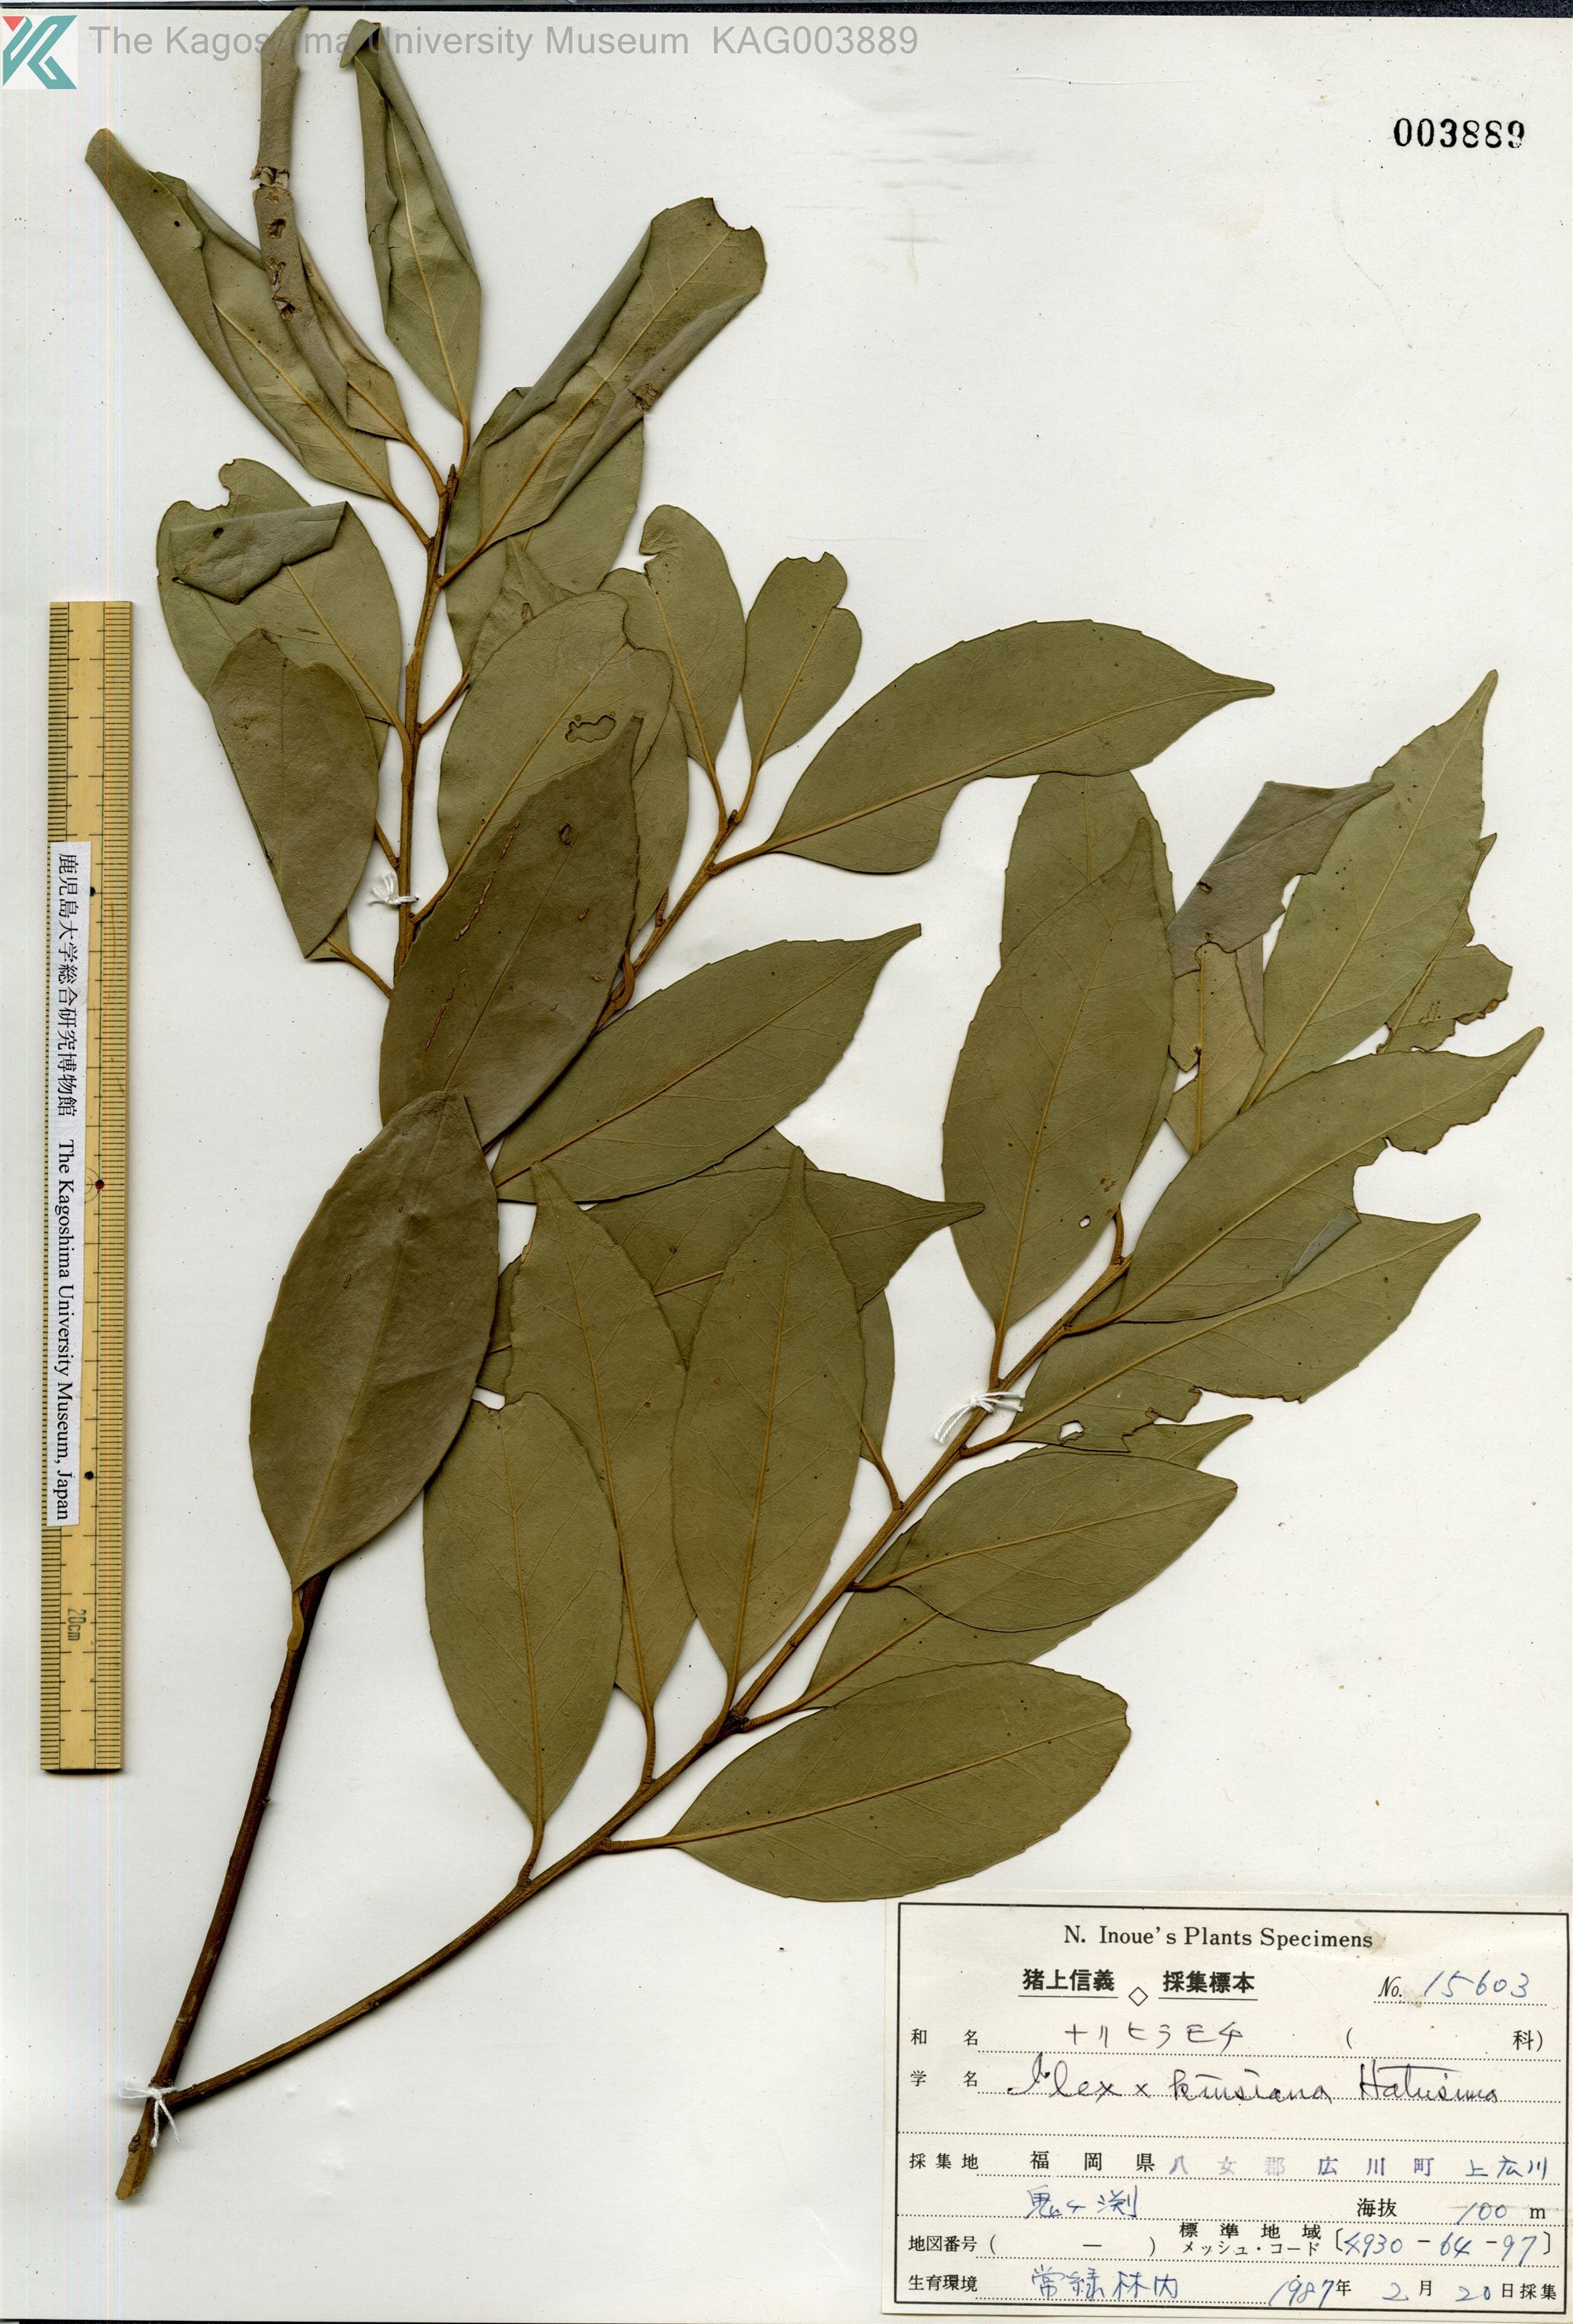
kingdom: Plantae
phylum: Tracheophyta
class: Magnoliopsida
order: Aquifoliales
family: Aquifoliaceae
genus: Ilex
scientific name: Ilex kiusiana
